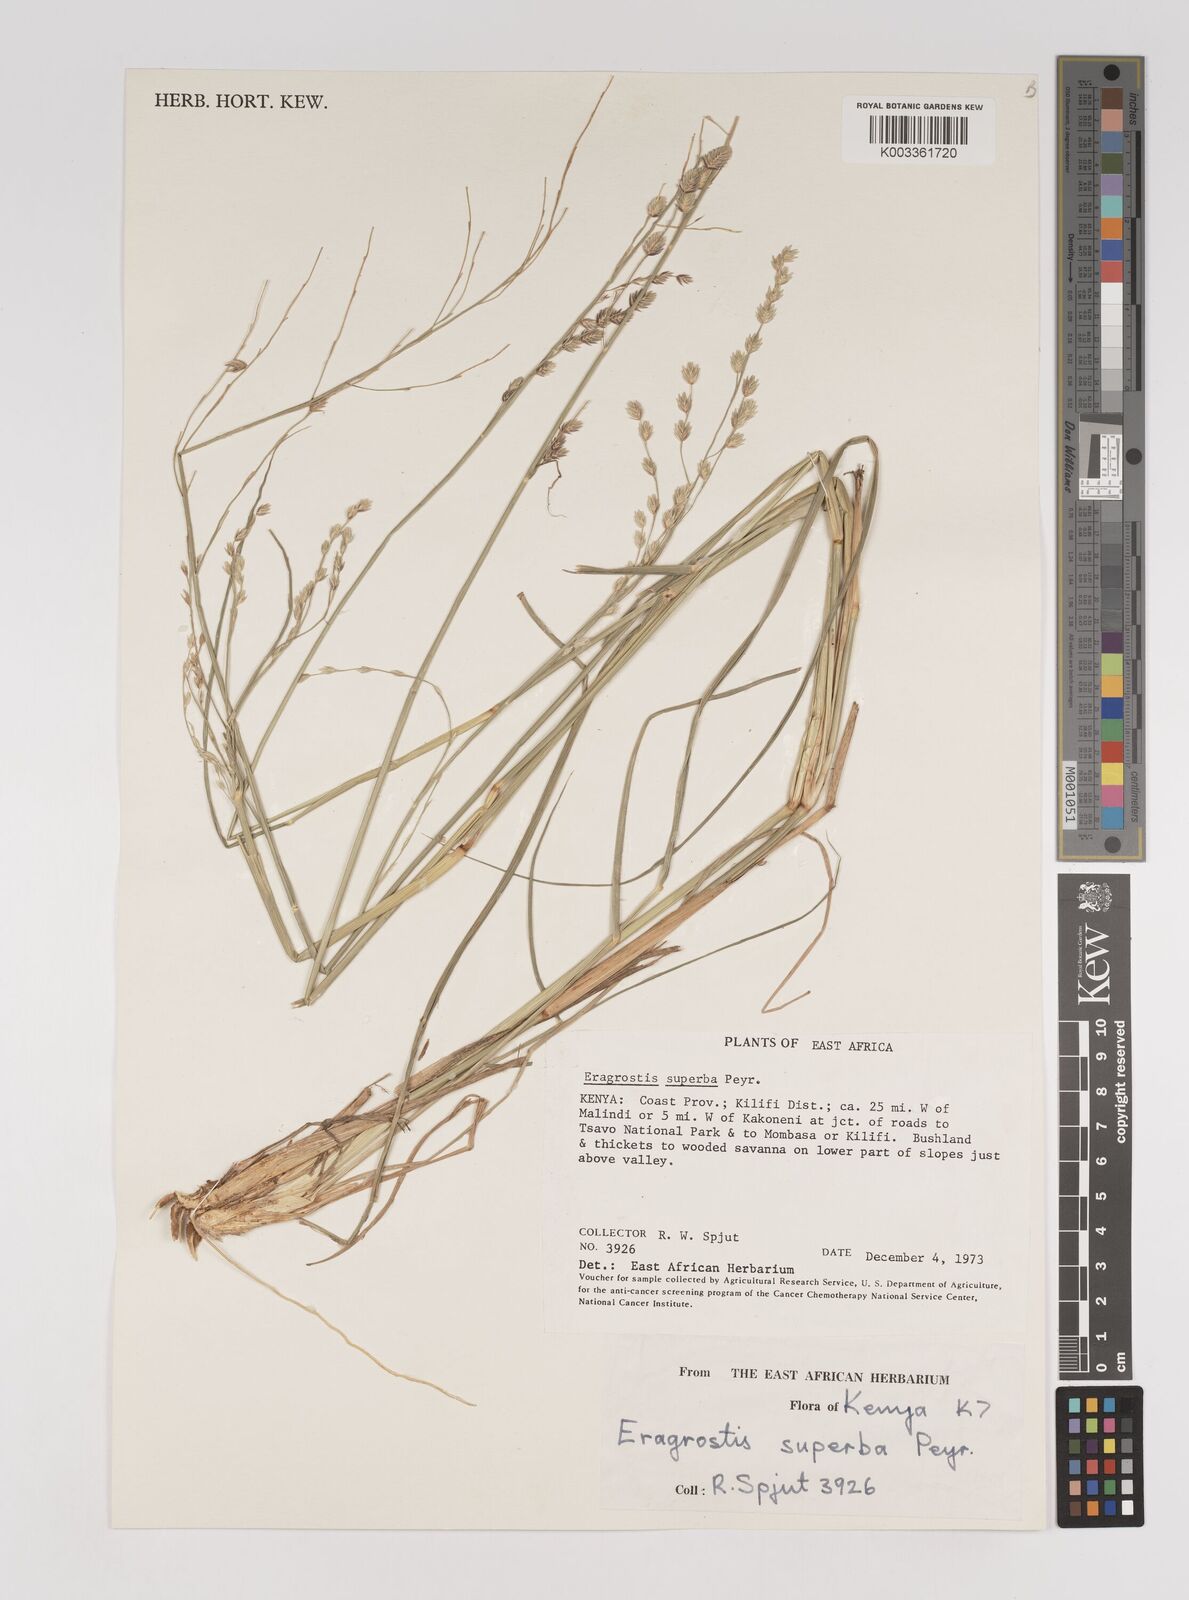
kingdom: Plantae
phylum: Tracheophyta
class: Liliopsida
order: Poales
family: Poaceae
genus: Eragrostis
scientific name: Eragrostis superba
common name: Wilman lovegrass
